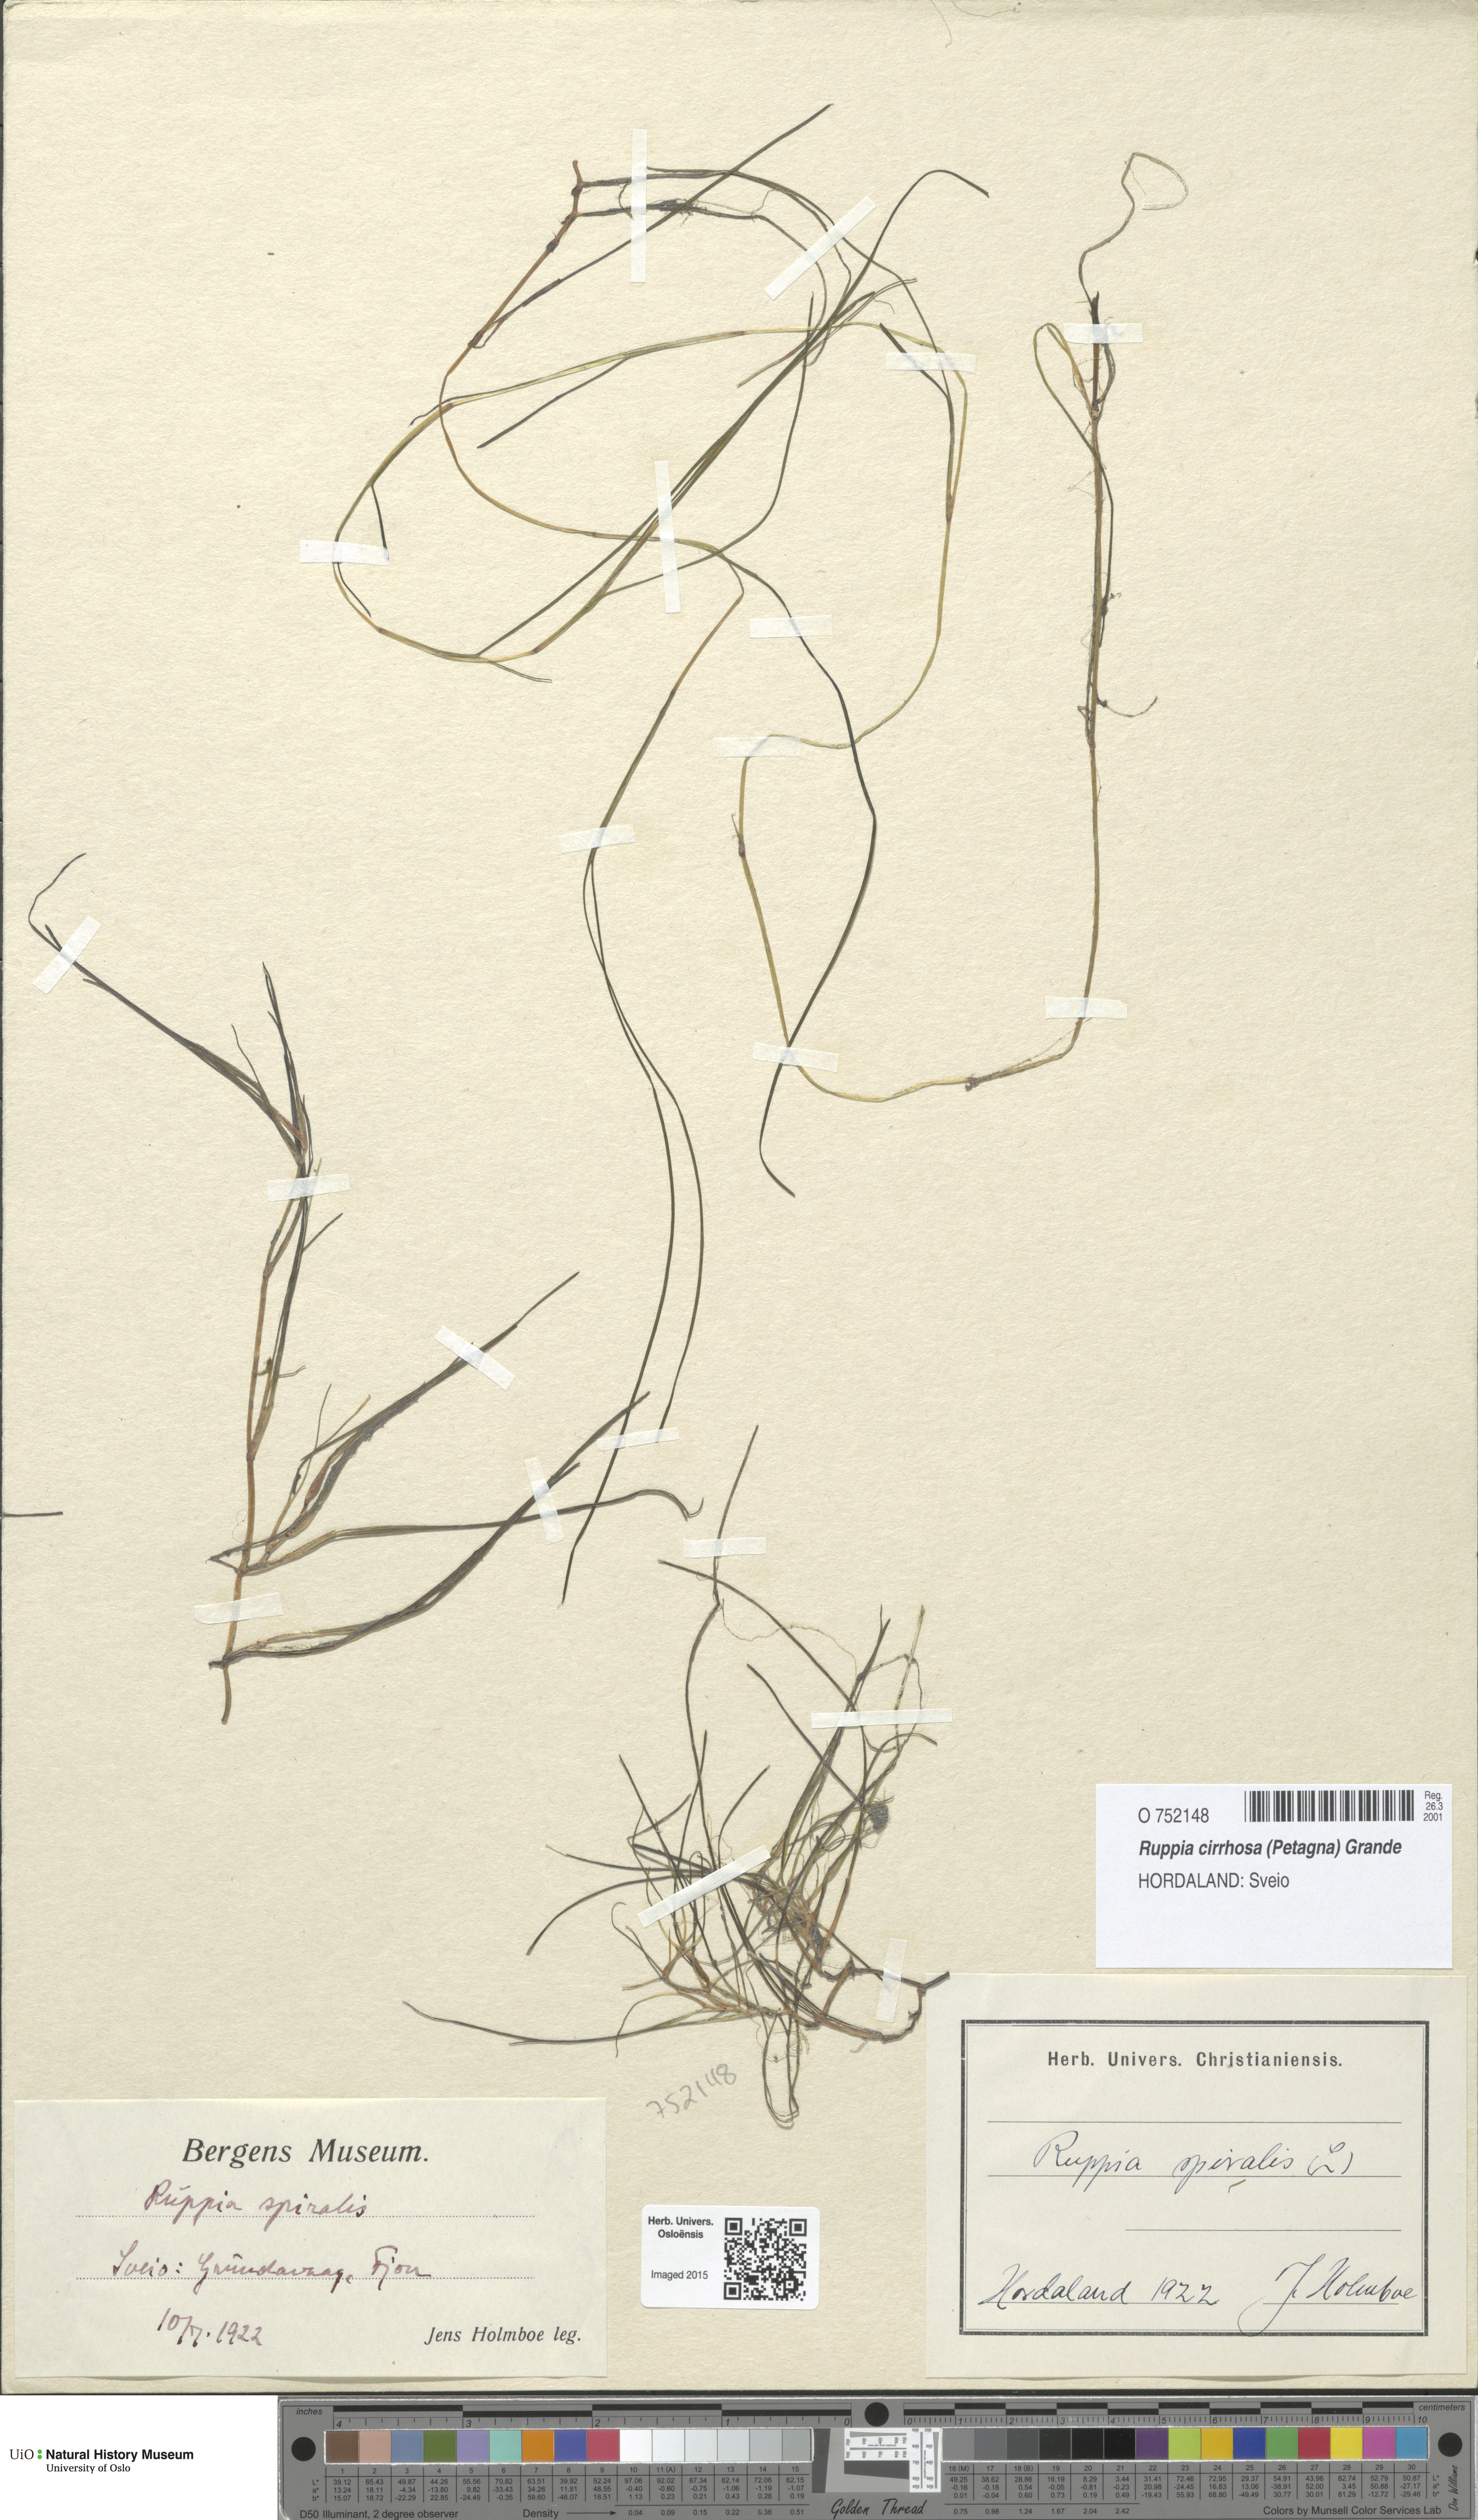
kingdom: Plantae
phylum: Tracheophyta
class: Liliopsida
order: Alismatales
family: Ruppiaceae
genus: Ruppia
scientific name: Ruppia cirrhosa
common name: Spiral tasselweed
